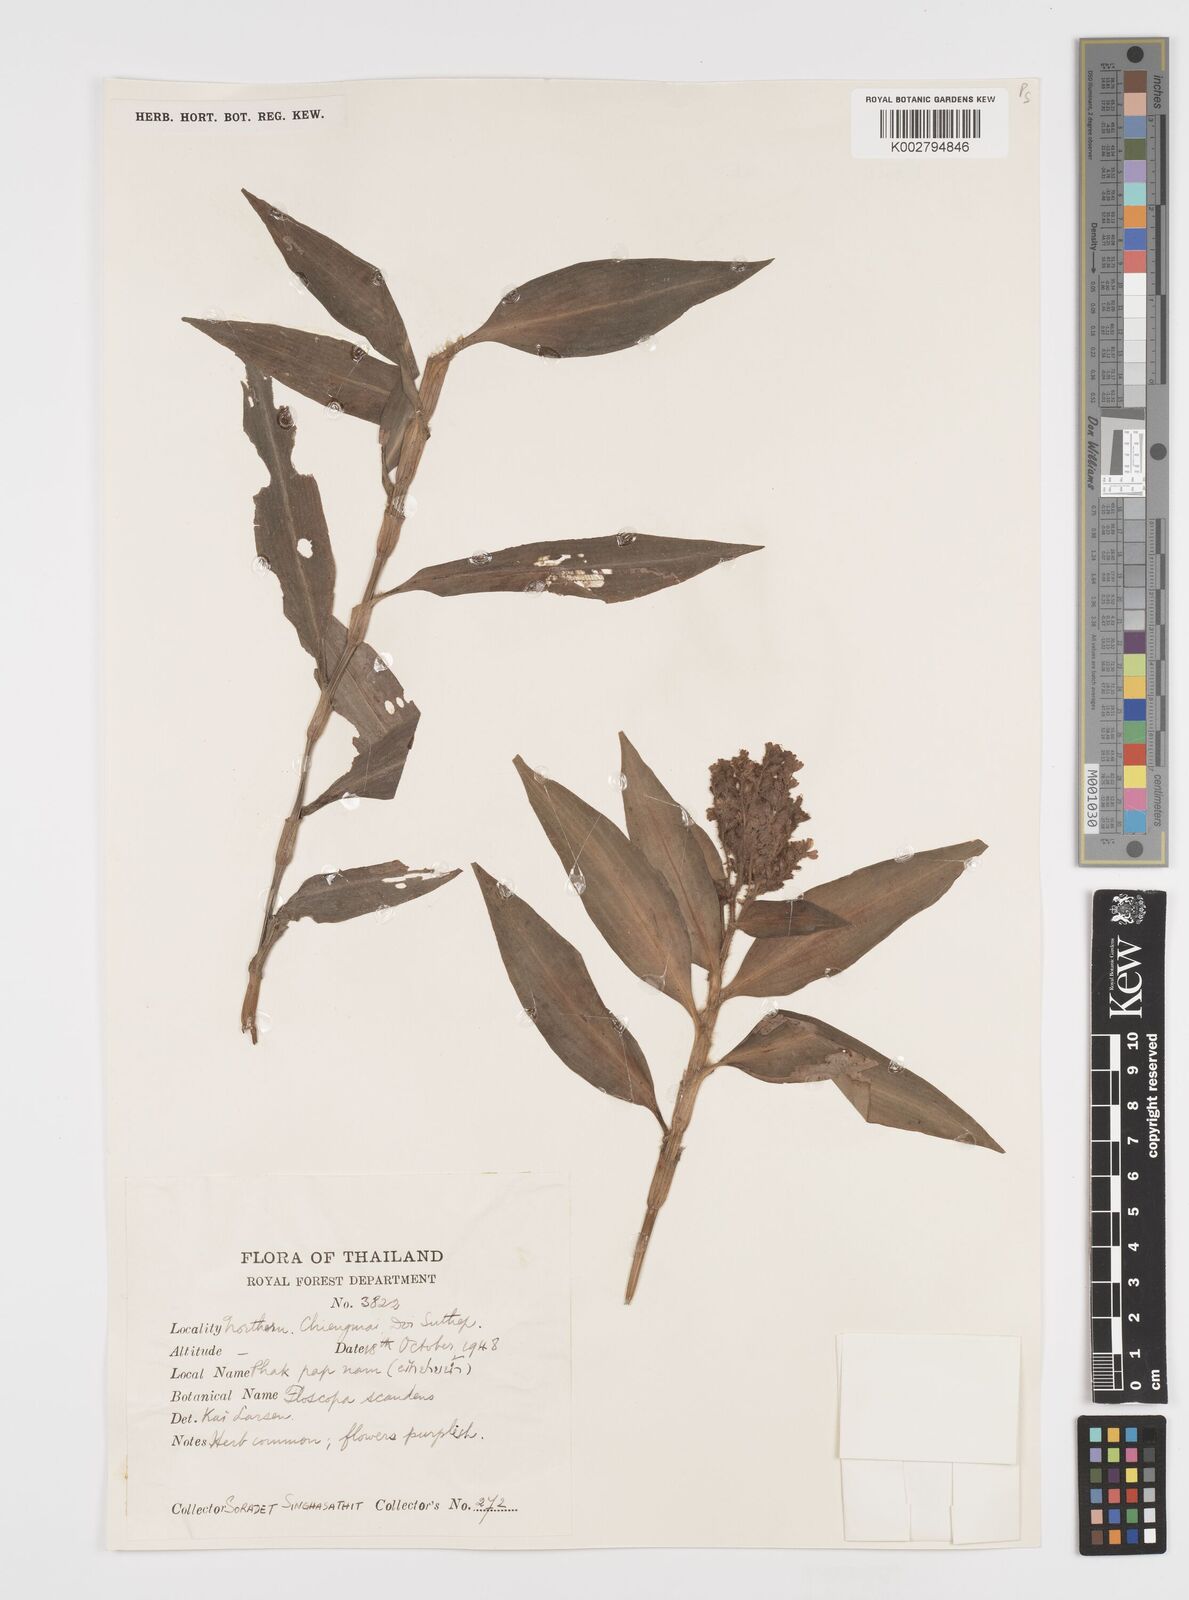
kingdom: Plantae
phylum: Tracheophyta
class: Liliopsida
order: Commelinales
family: Commelinaceae
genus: Floscopa
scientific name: Floscopa scandens
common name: Climbing flower cup
